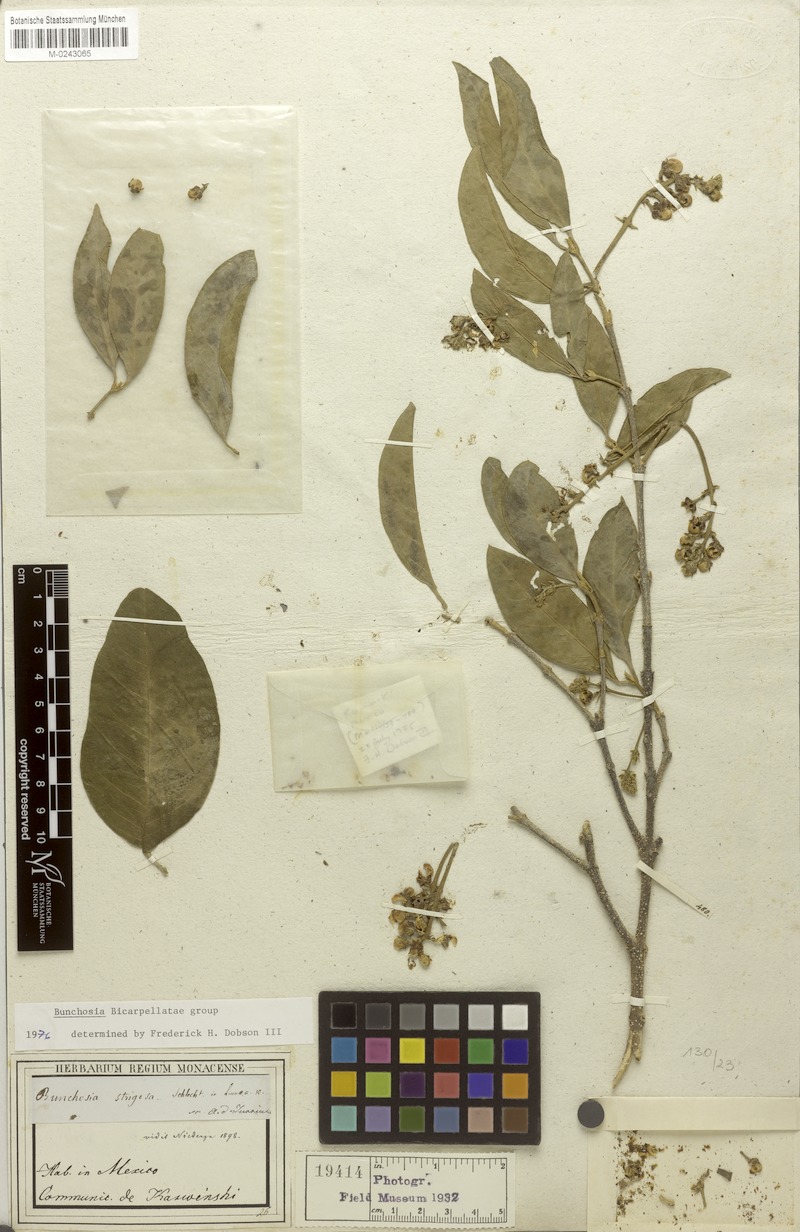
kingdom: Plantae
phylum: Tracheophyta
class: Magnoliopsida
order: Malpighiales
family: Malpighiaceae
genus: Bunchosia
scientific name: Bunchosia strigosa
